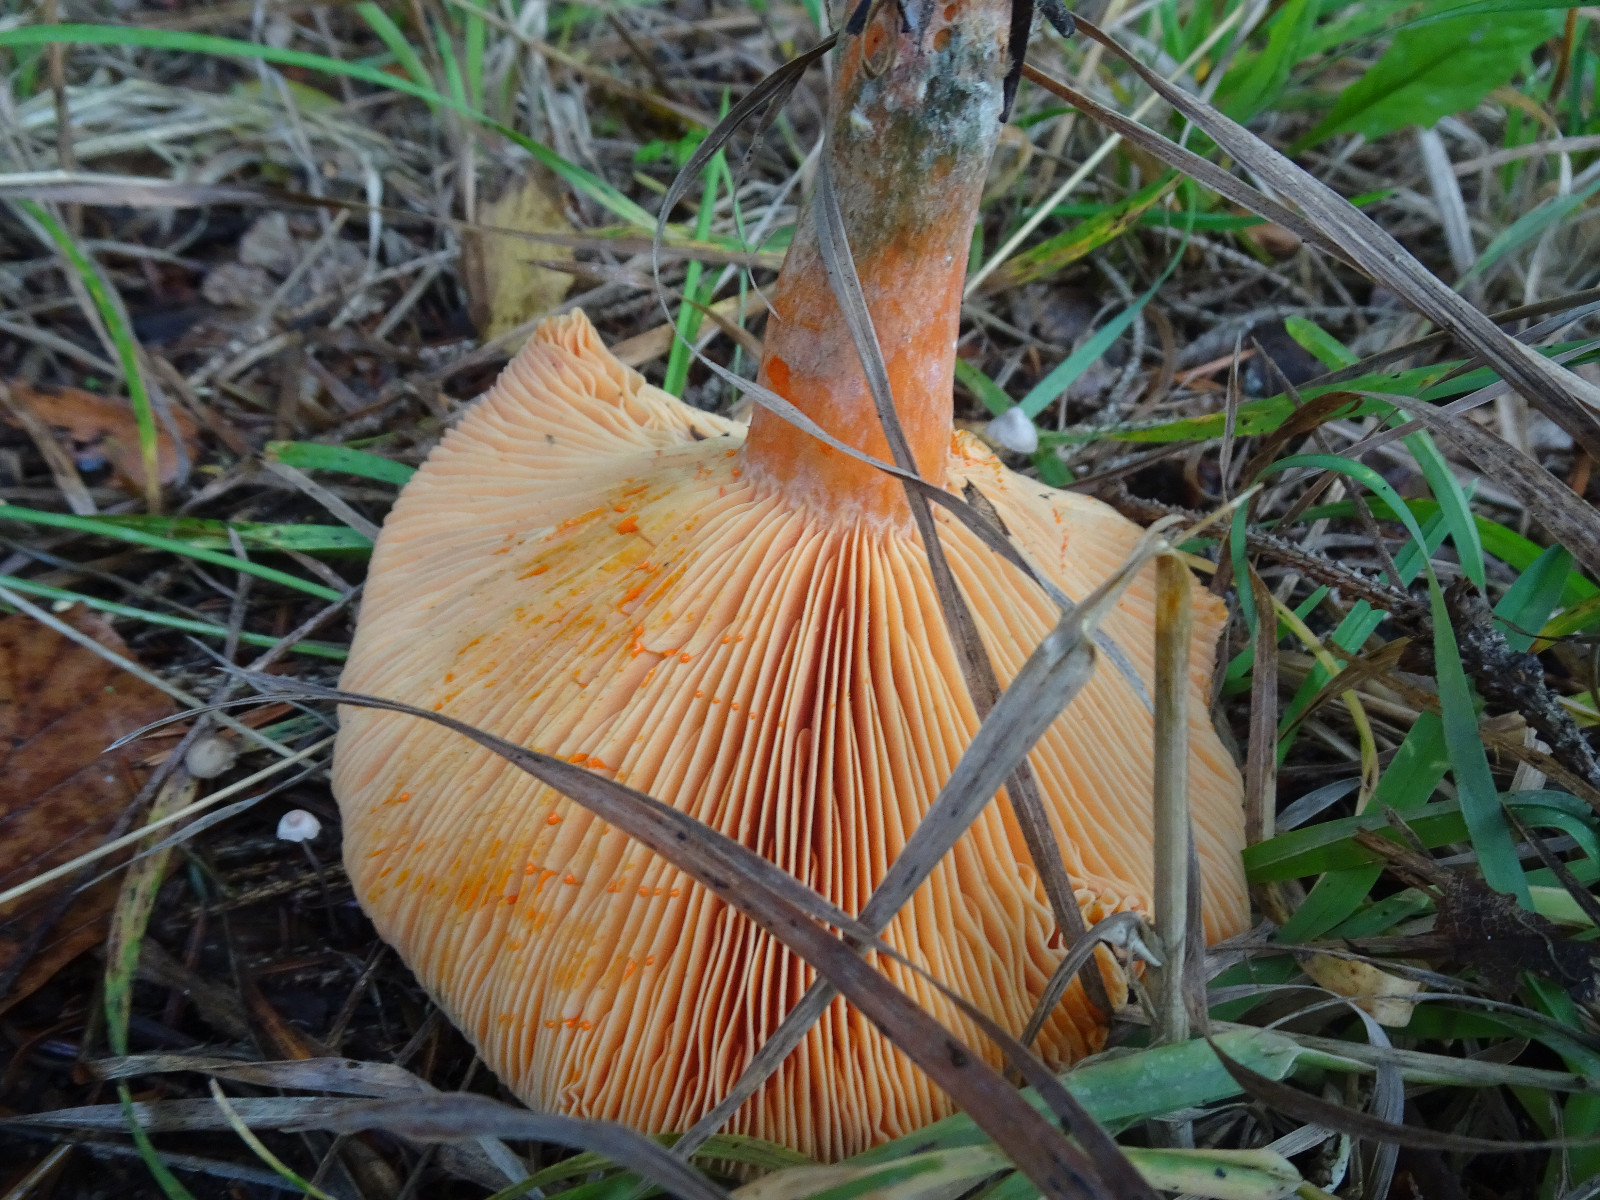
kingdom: Fungi
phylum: Basidiomycota
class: Agaricomycetes
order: Russulales
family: Russulaceae
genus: Lactarius
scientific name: Lactarius deterrimus
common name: gran-mælkehat
